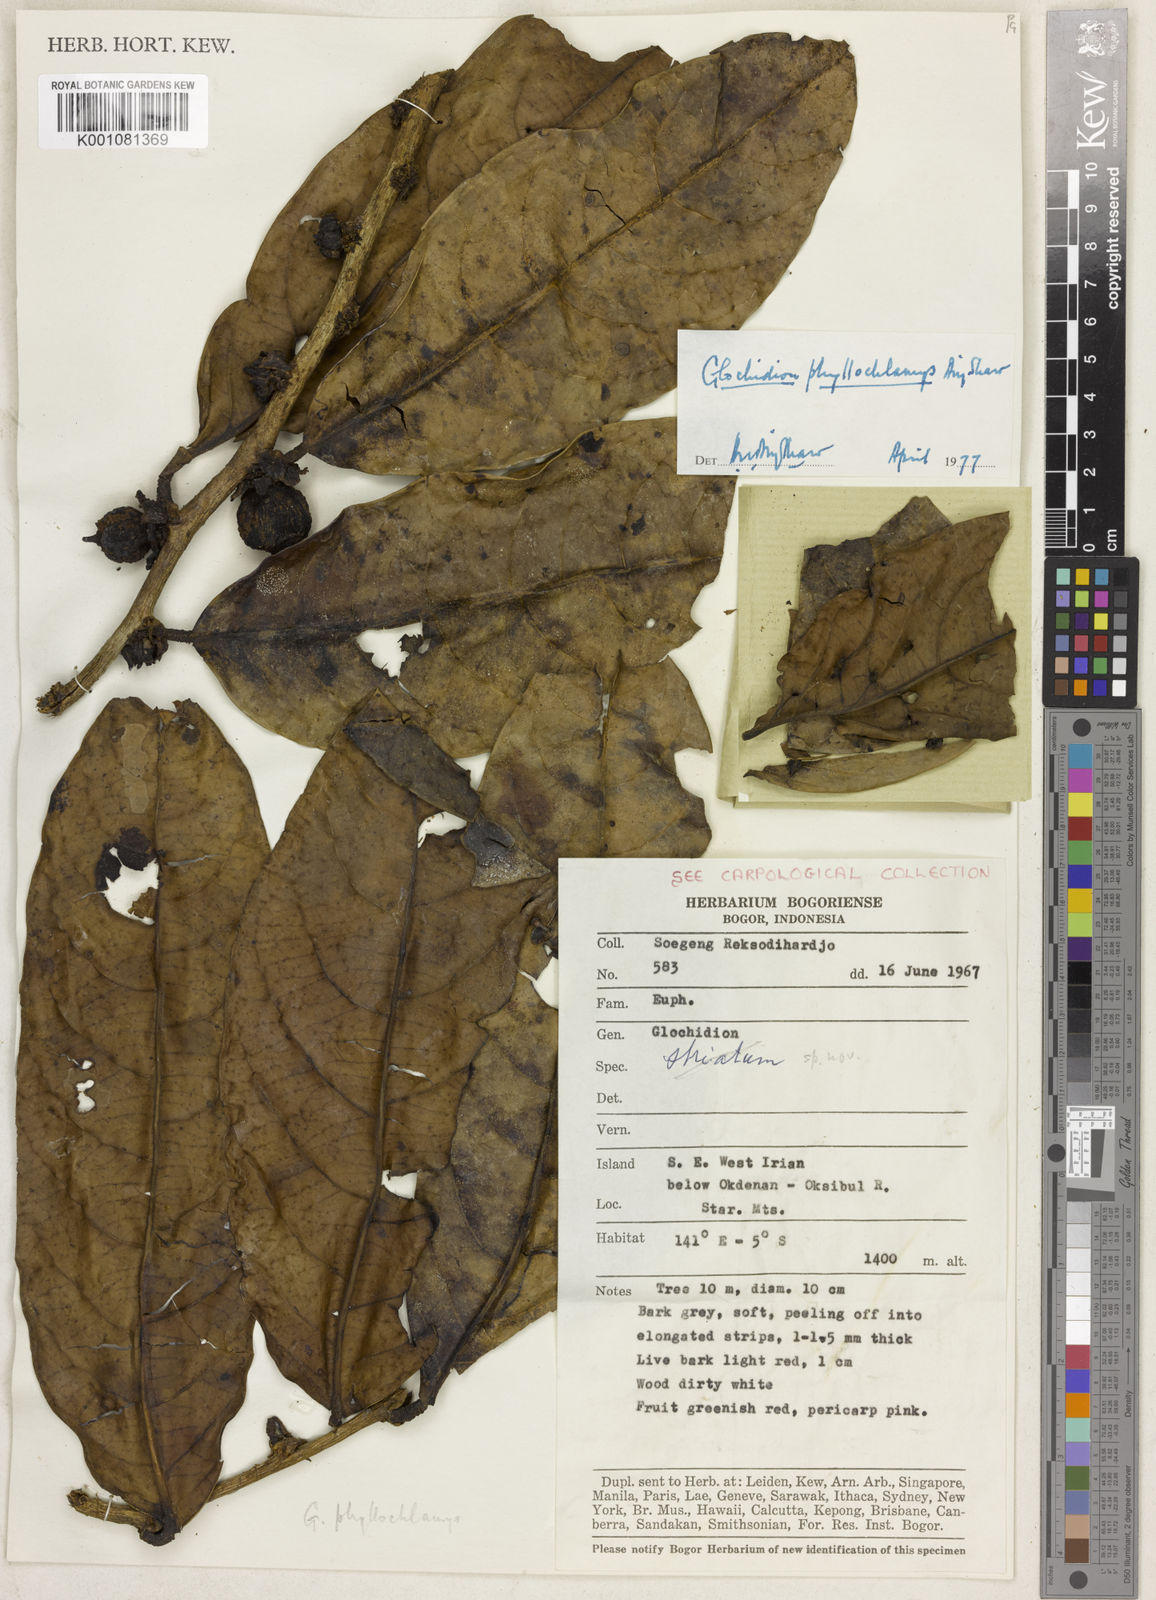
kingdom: Plantae
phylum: Tracheophyta
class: Magnoliopsida
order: Malpighiales
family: Phyllanthaceae
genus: Glochidion
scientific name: Glochidion phyllochlamys
